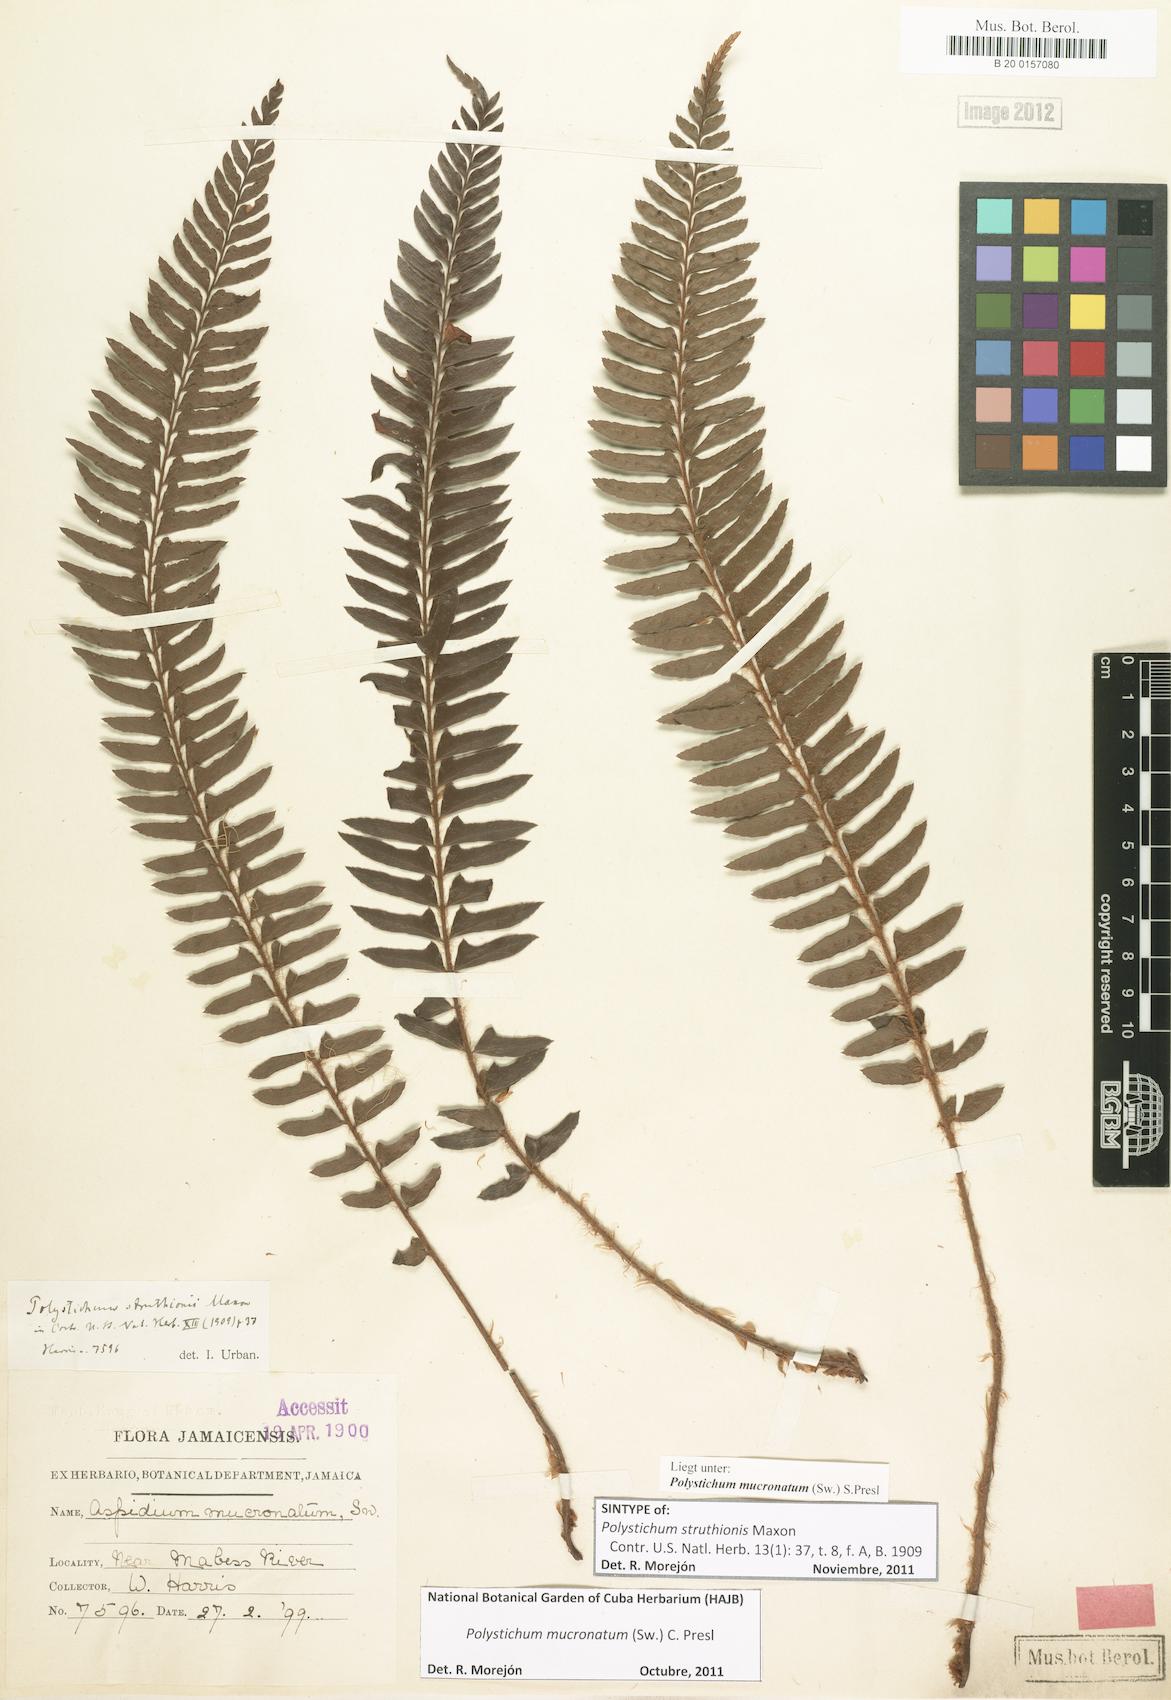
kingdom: Plantae
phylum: Tracheophyta
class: Polypodiopsida
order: Polypodiales
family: Dryopteridaceae
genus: Polystichum
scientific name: Polystichum triangulum
